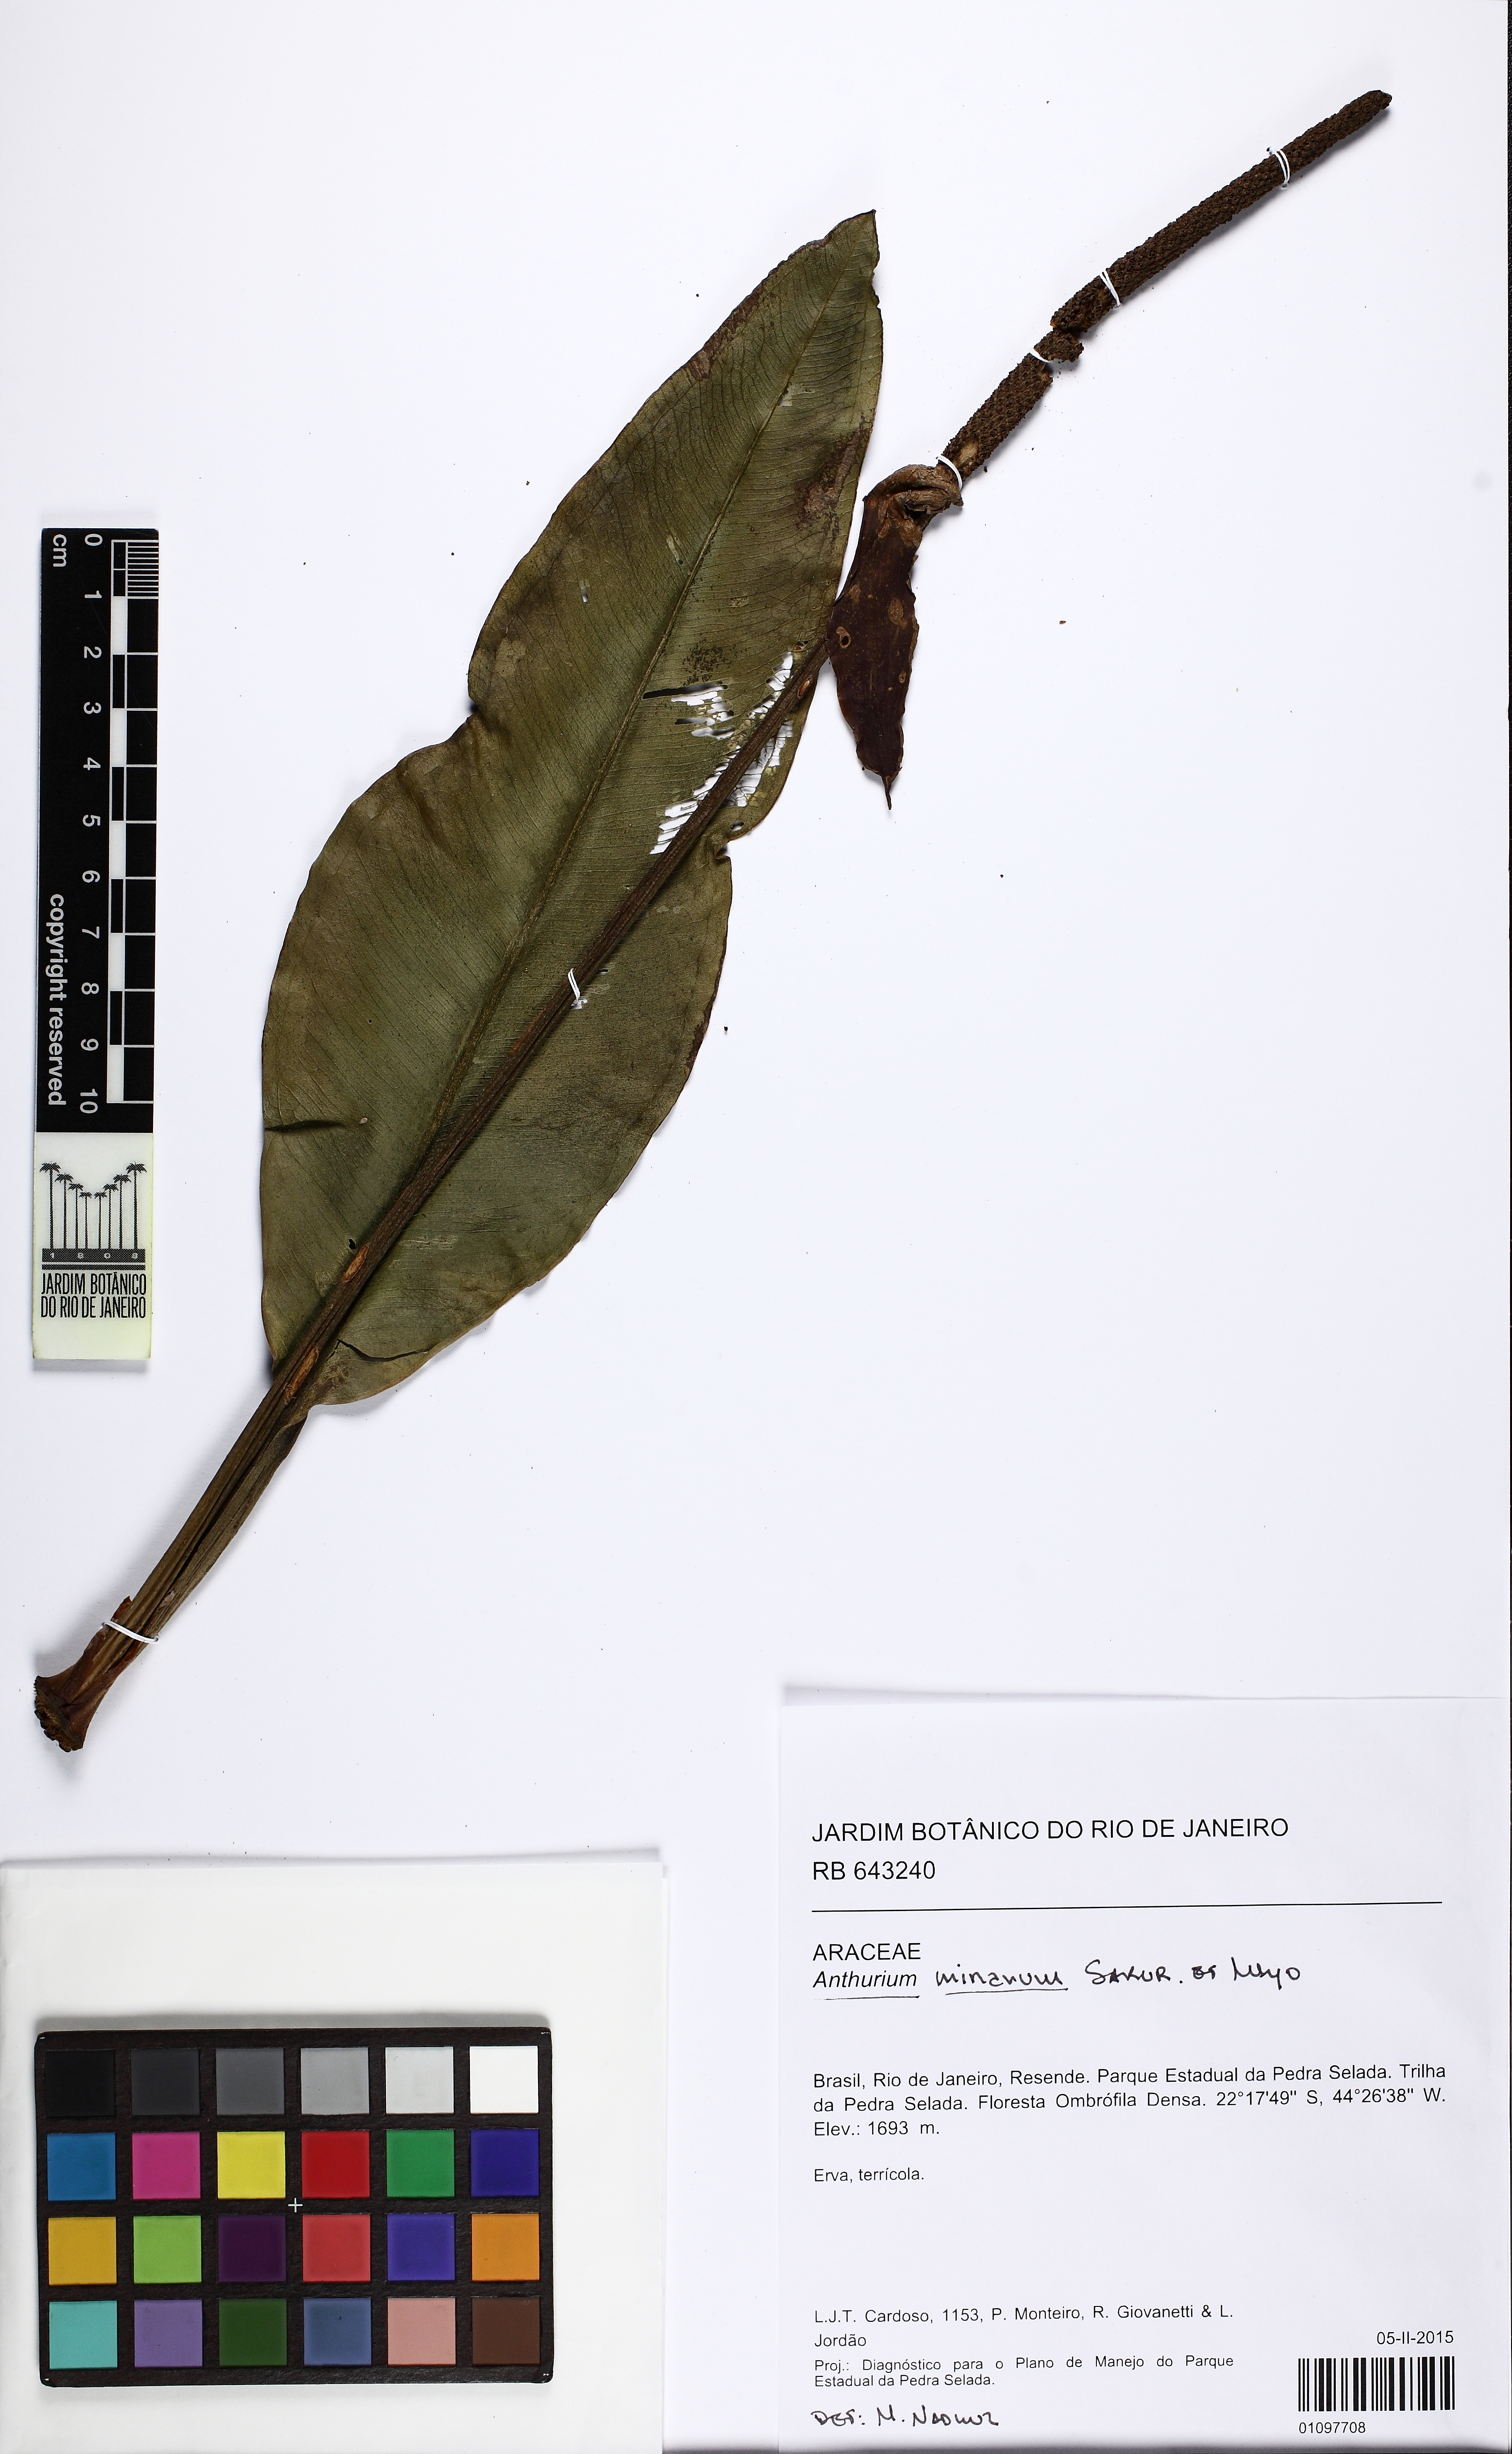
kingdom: Plantae
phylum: Tracheophyta
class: Liliopsida
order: Alismatales
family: Araceae
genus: Anthurium
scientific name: Anthurium minarum
